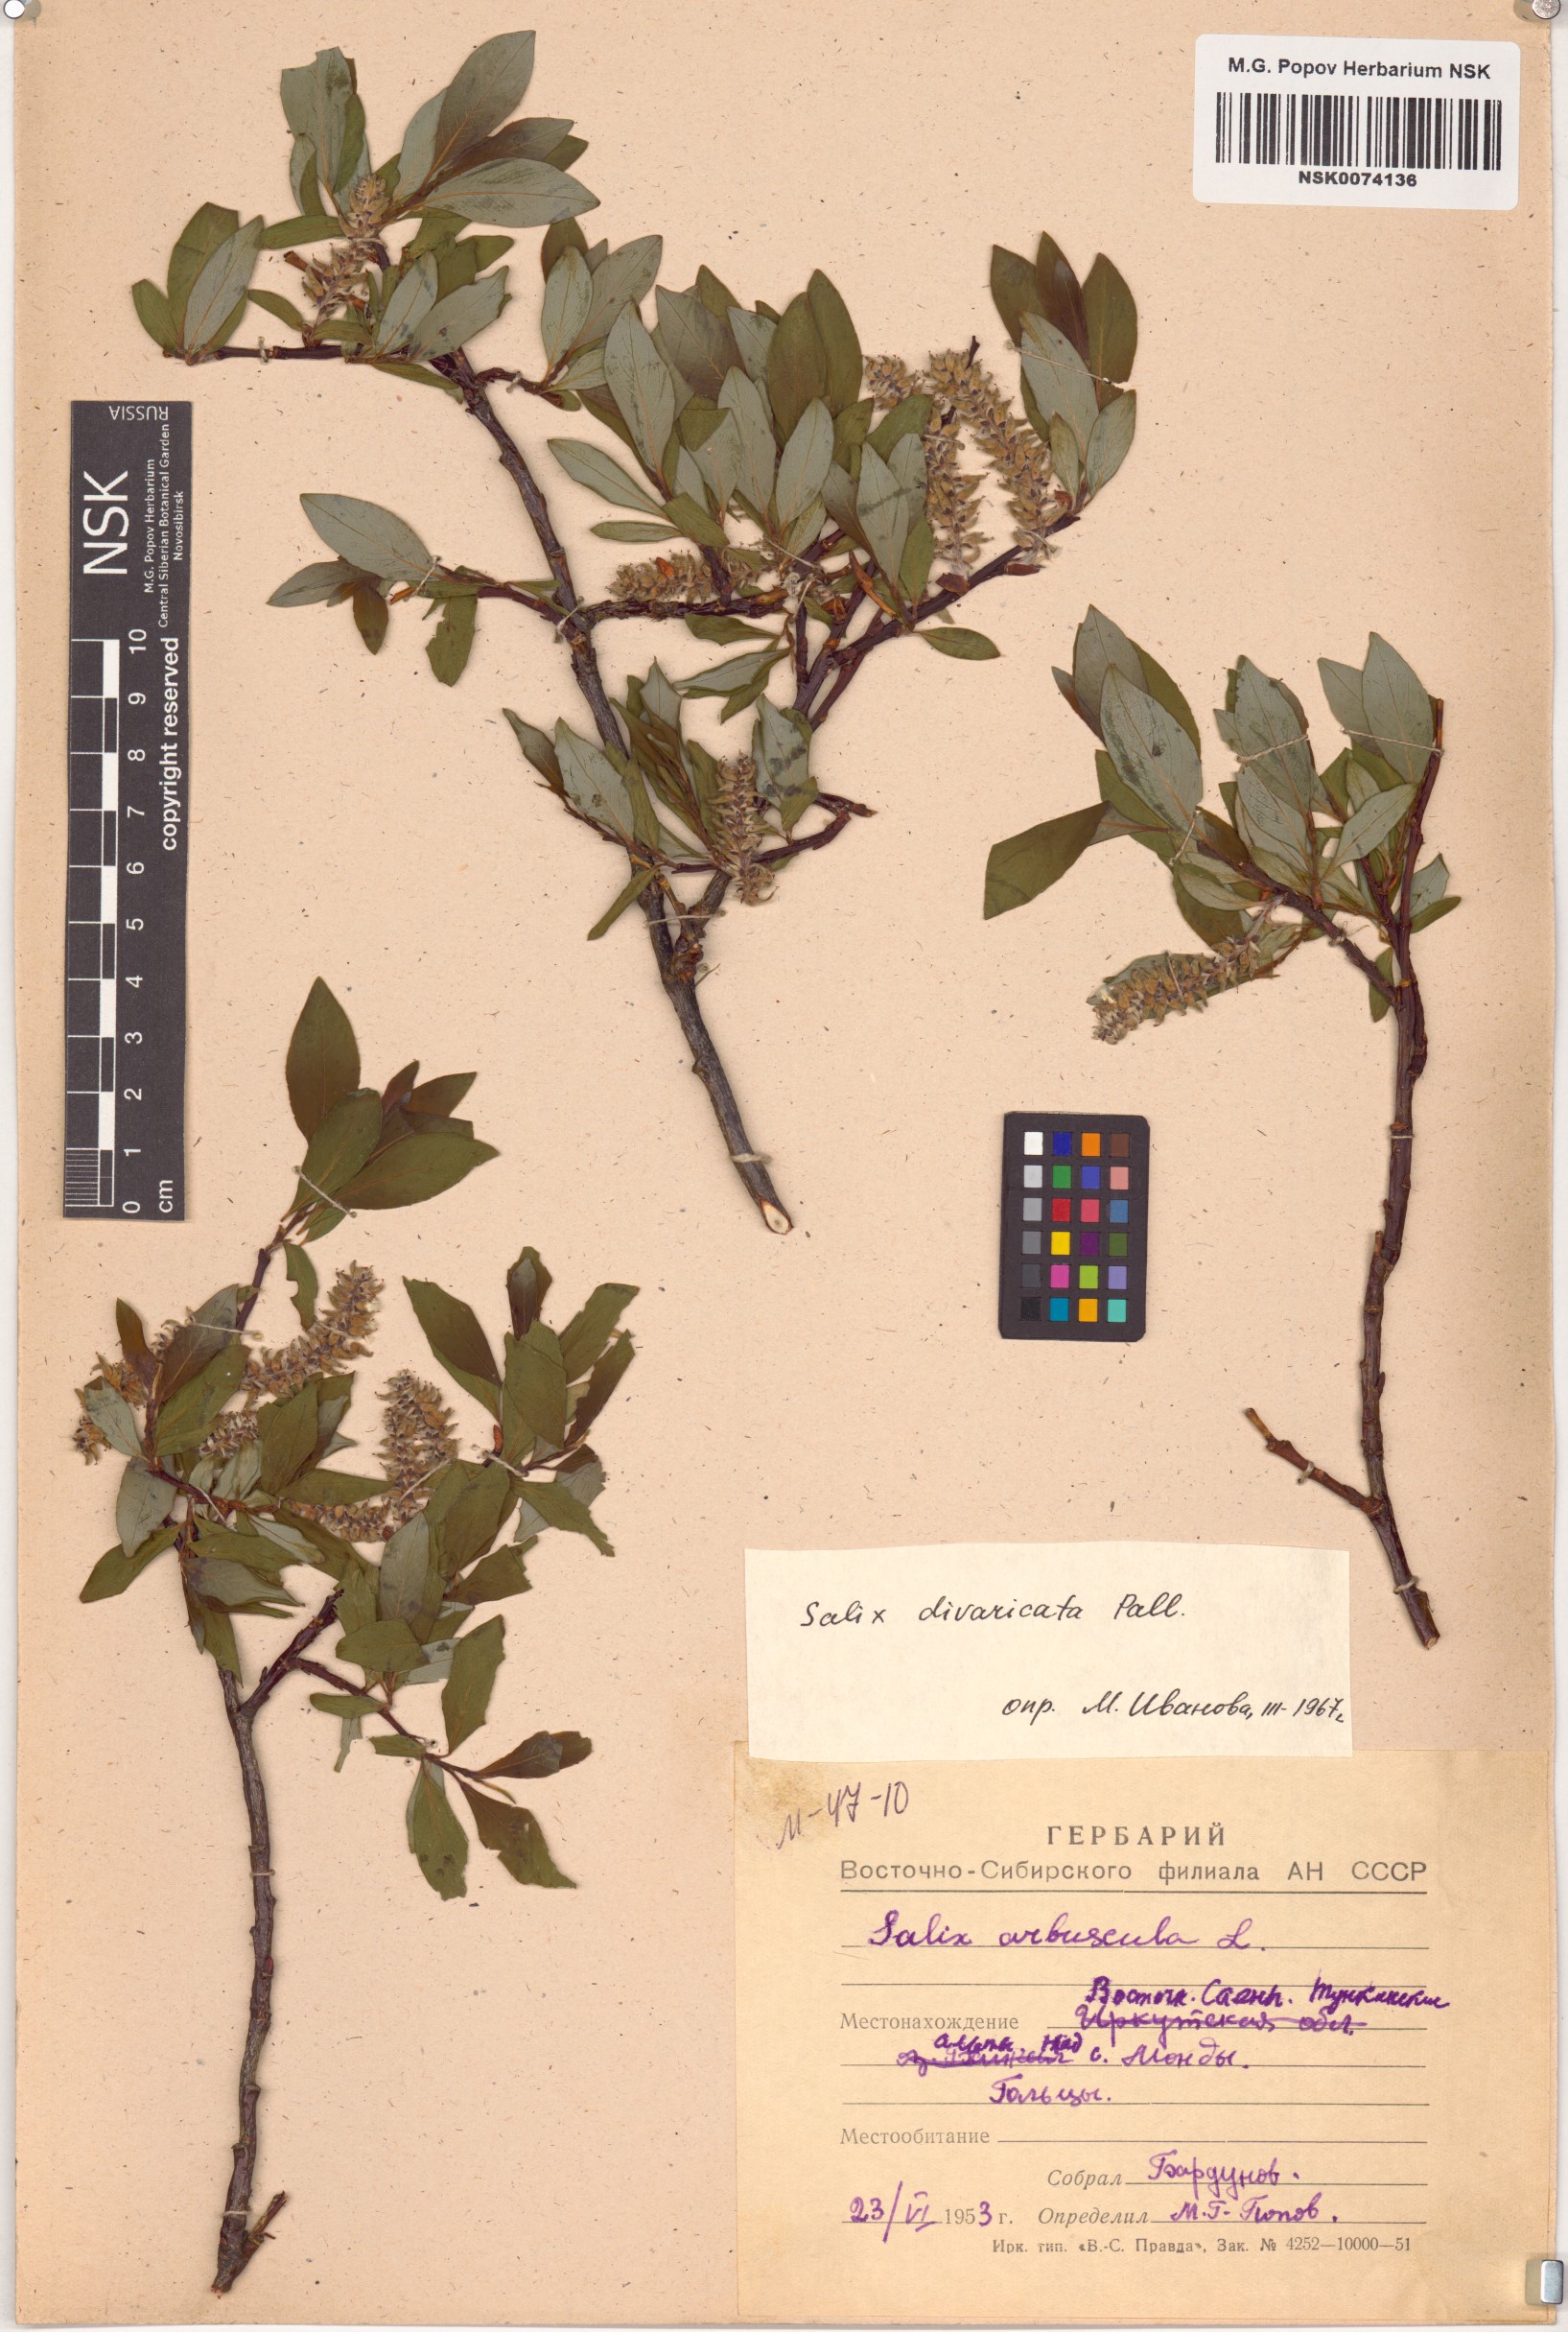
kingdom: Plantae
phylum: Tracheophyta
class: Magnoliopsida
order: Malpighiales
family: Salicaceae
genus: Salix
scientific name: Salix divaricata
